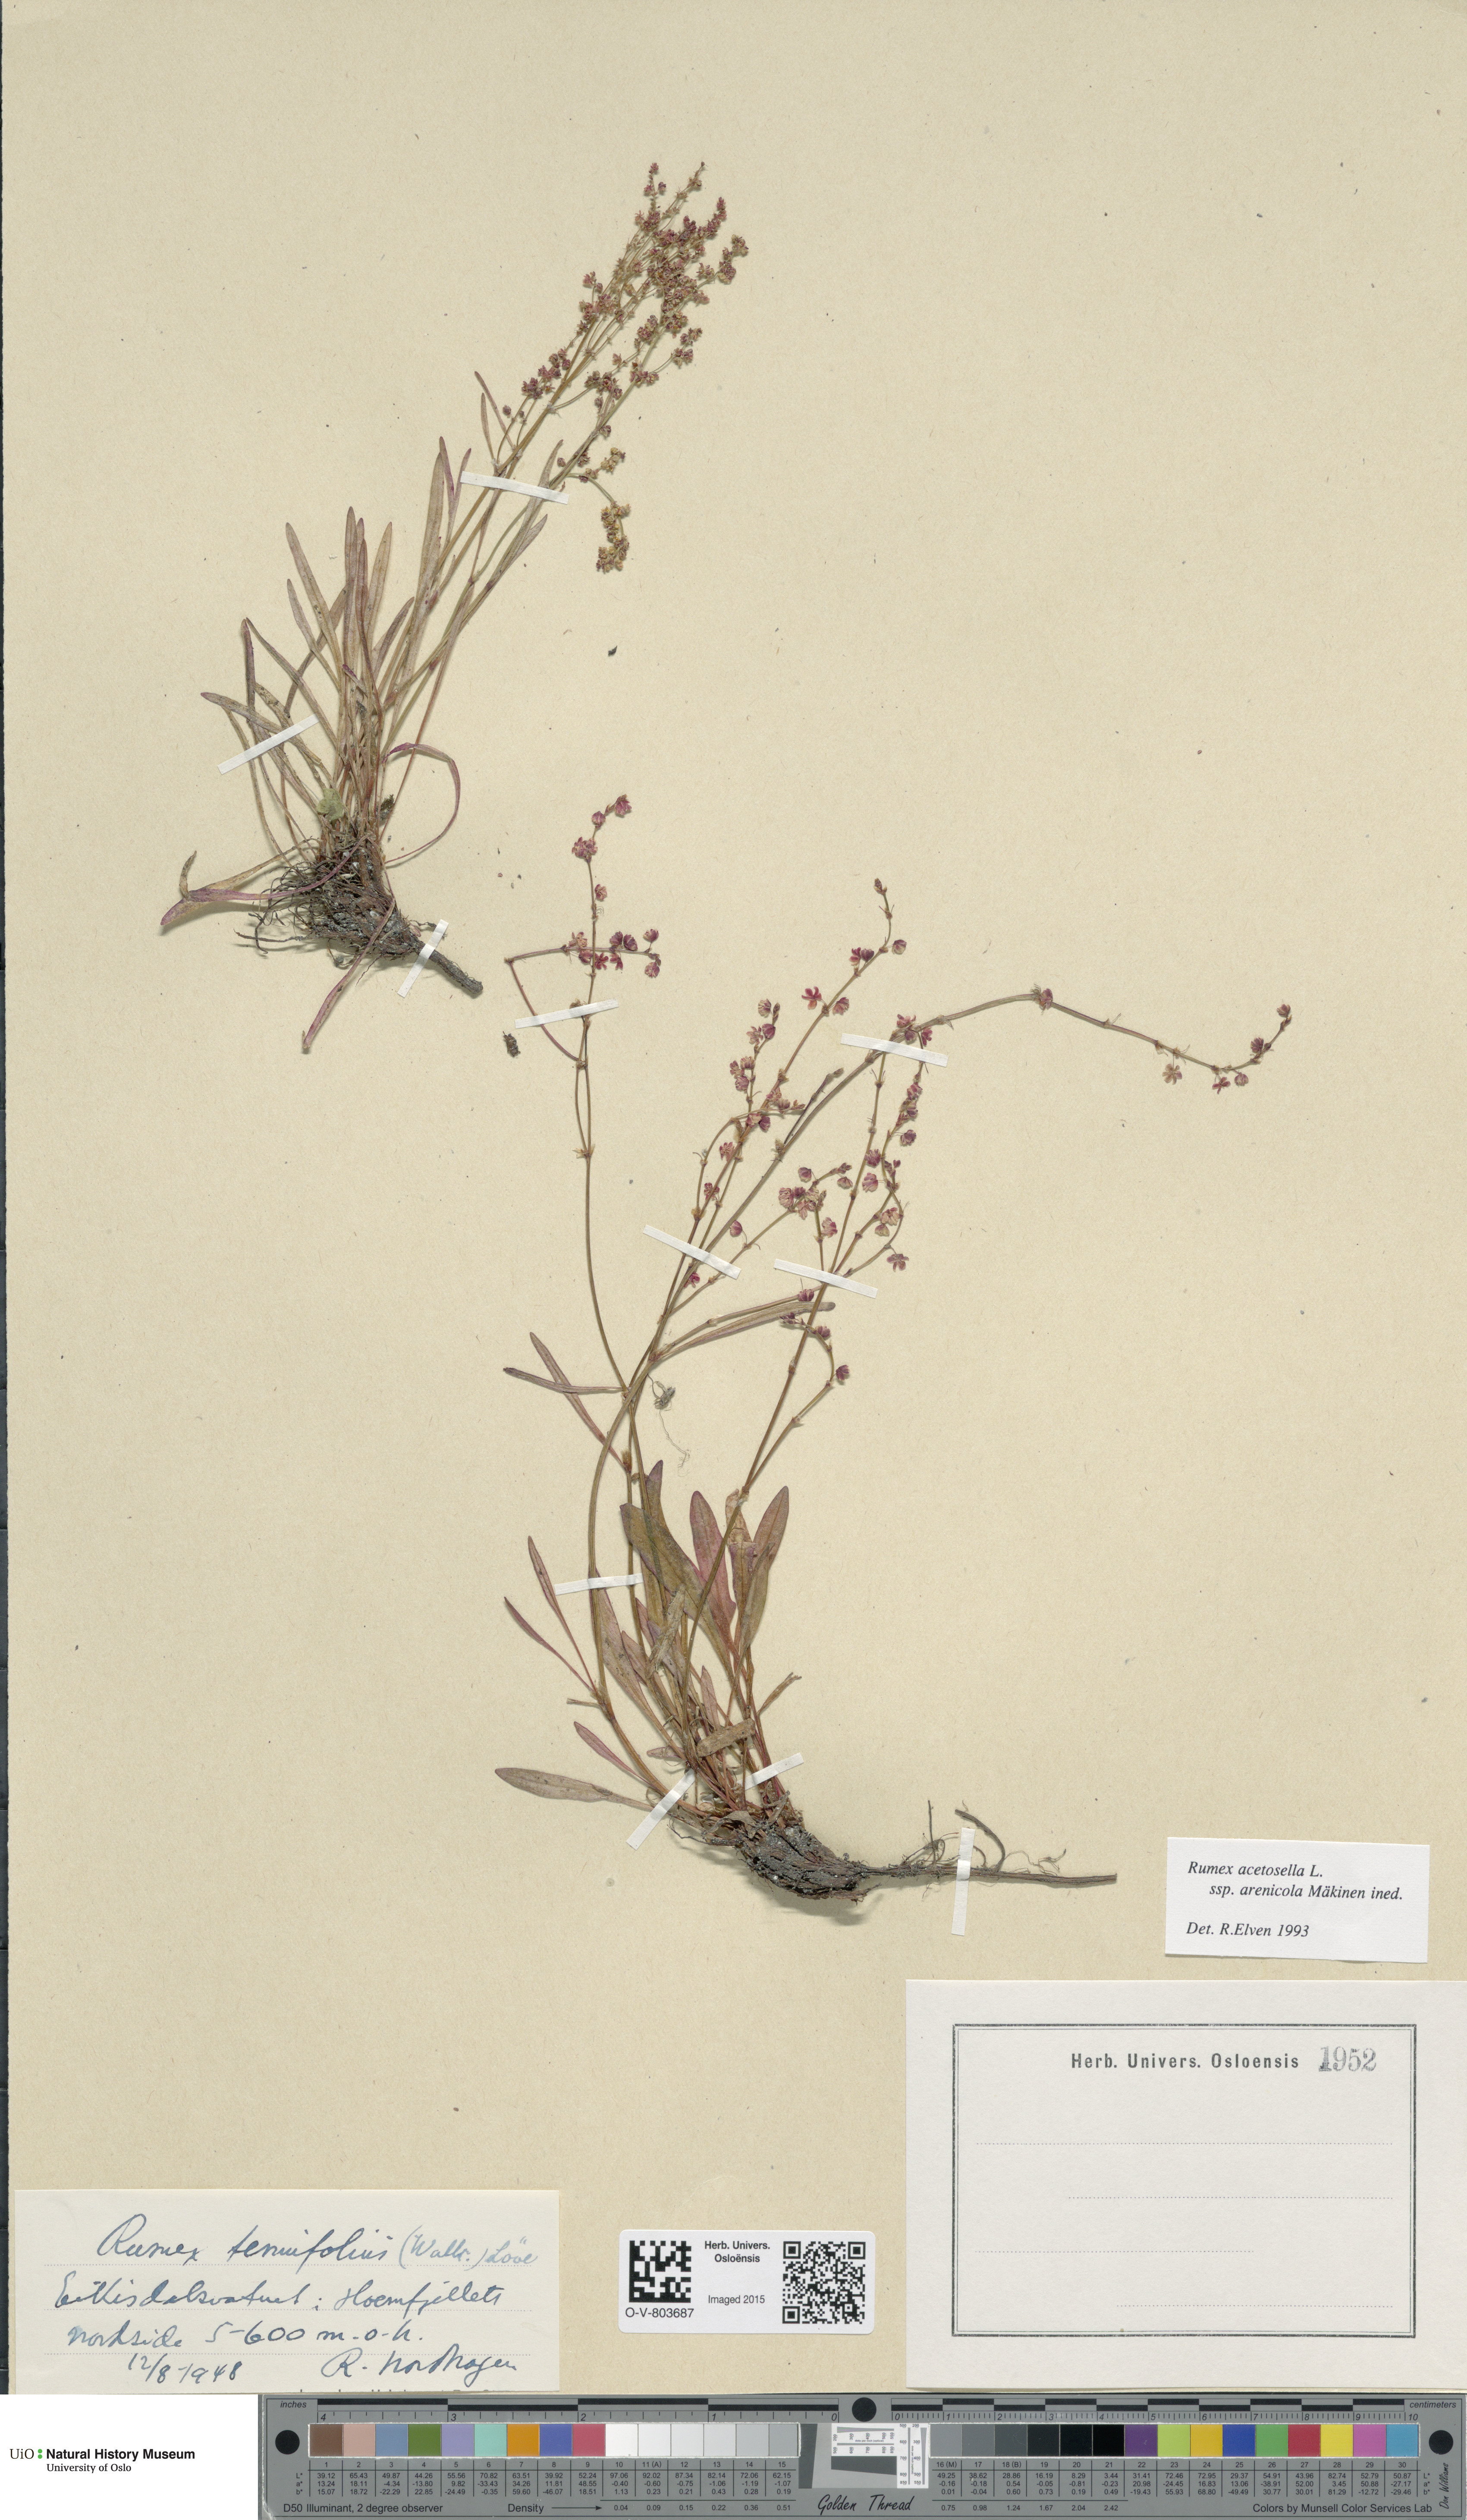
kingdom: Plantae
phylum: Tracheophyta
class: Magnoliopsida
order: Caryophyllales
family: Polygonaceae
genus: Rumex
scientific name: Rumex acetosella
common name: Common sheep sorrel
